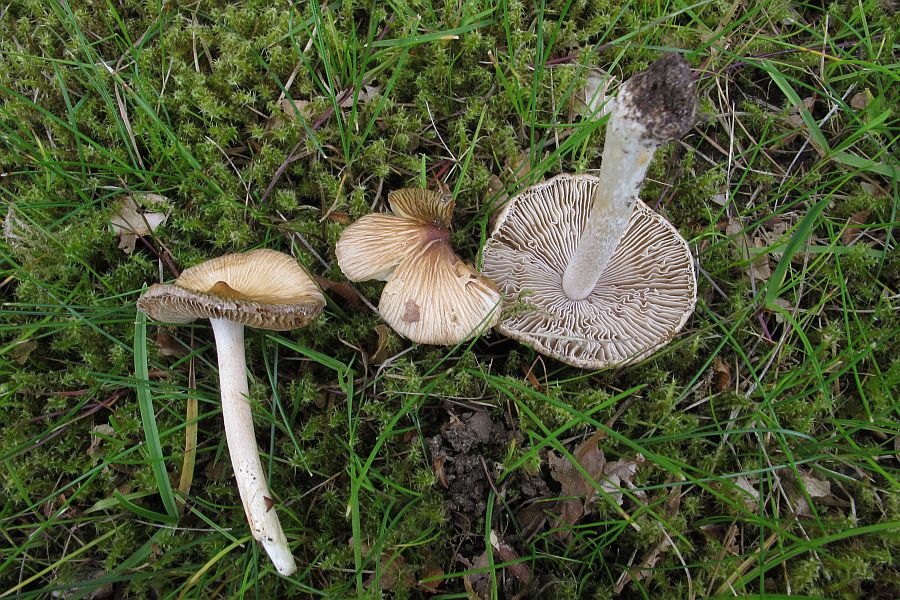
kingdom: Fungi
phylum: Basidiomycota
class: Agaricomycetes
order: Agaricales
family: Inocybaceae
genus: Pseudosperma
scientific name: Pseudosperma rimosum
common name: gulbladet trævlhat
